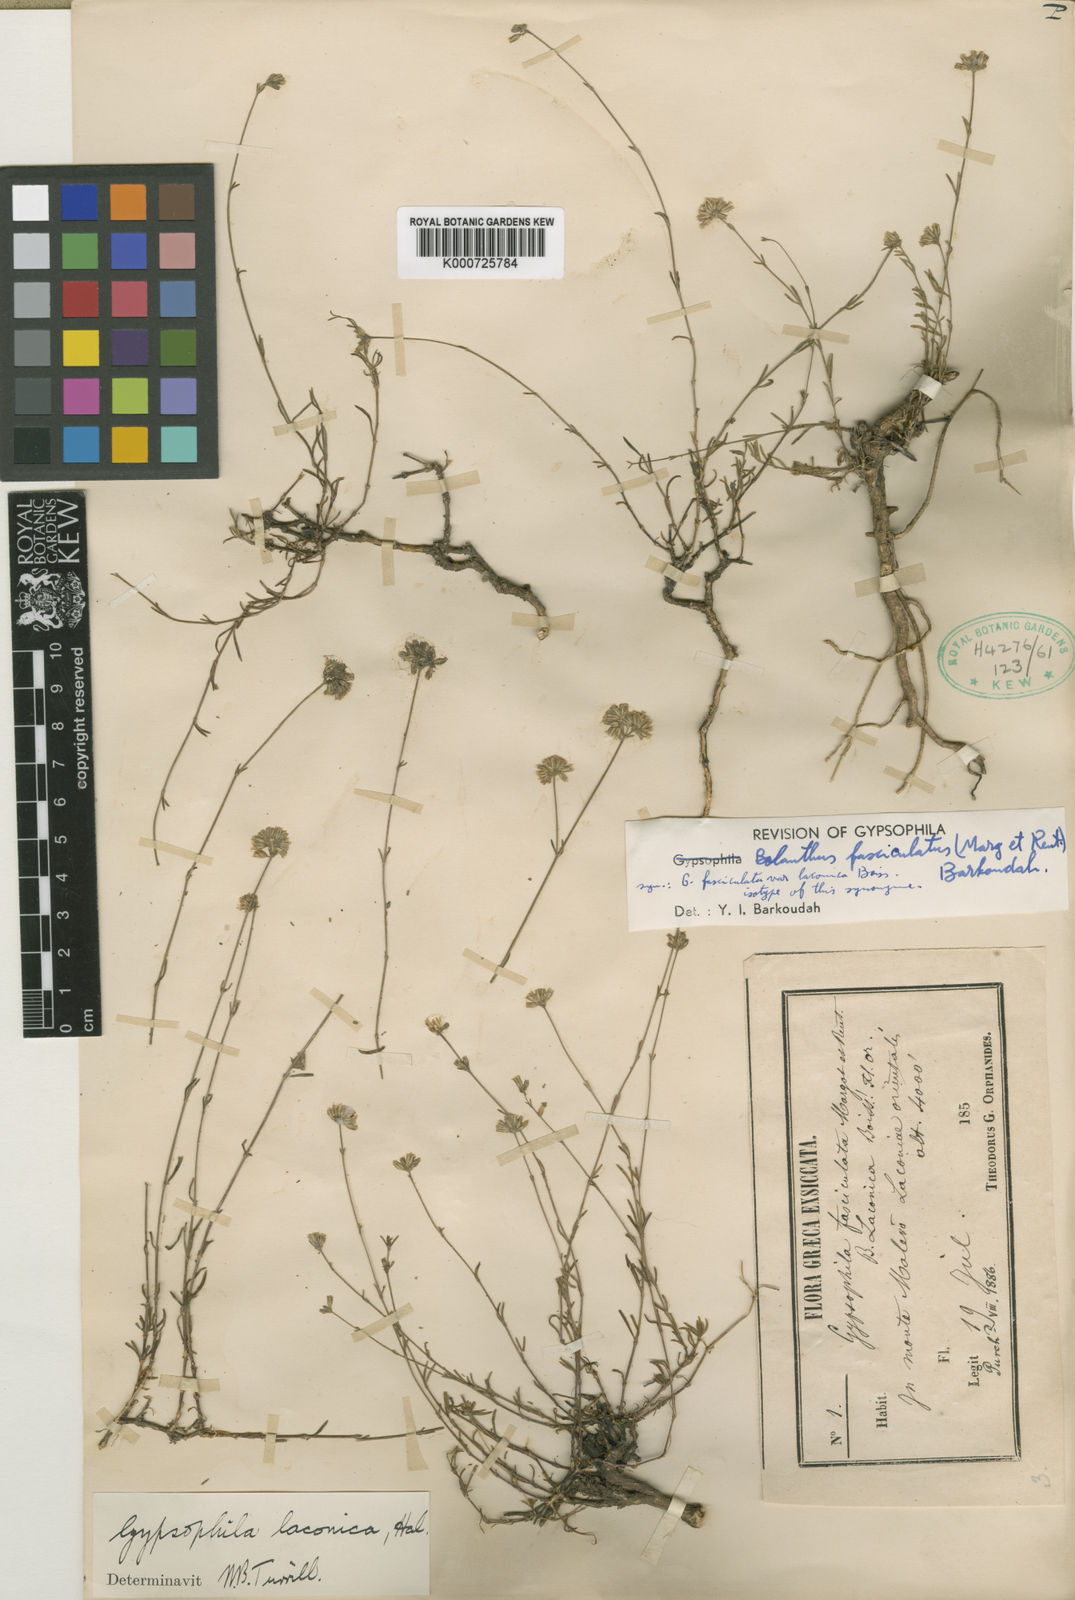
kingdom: Plantae
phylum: Tracheophyta
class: Magnoliopsida
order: Caryophyllales
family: Caryophyllaceae
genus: Graecobolanthus
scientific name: Graecobolanthus laconicus
